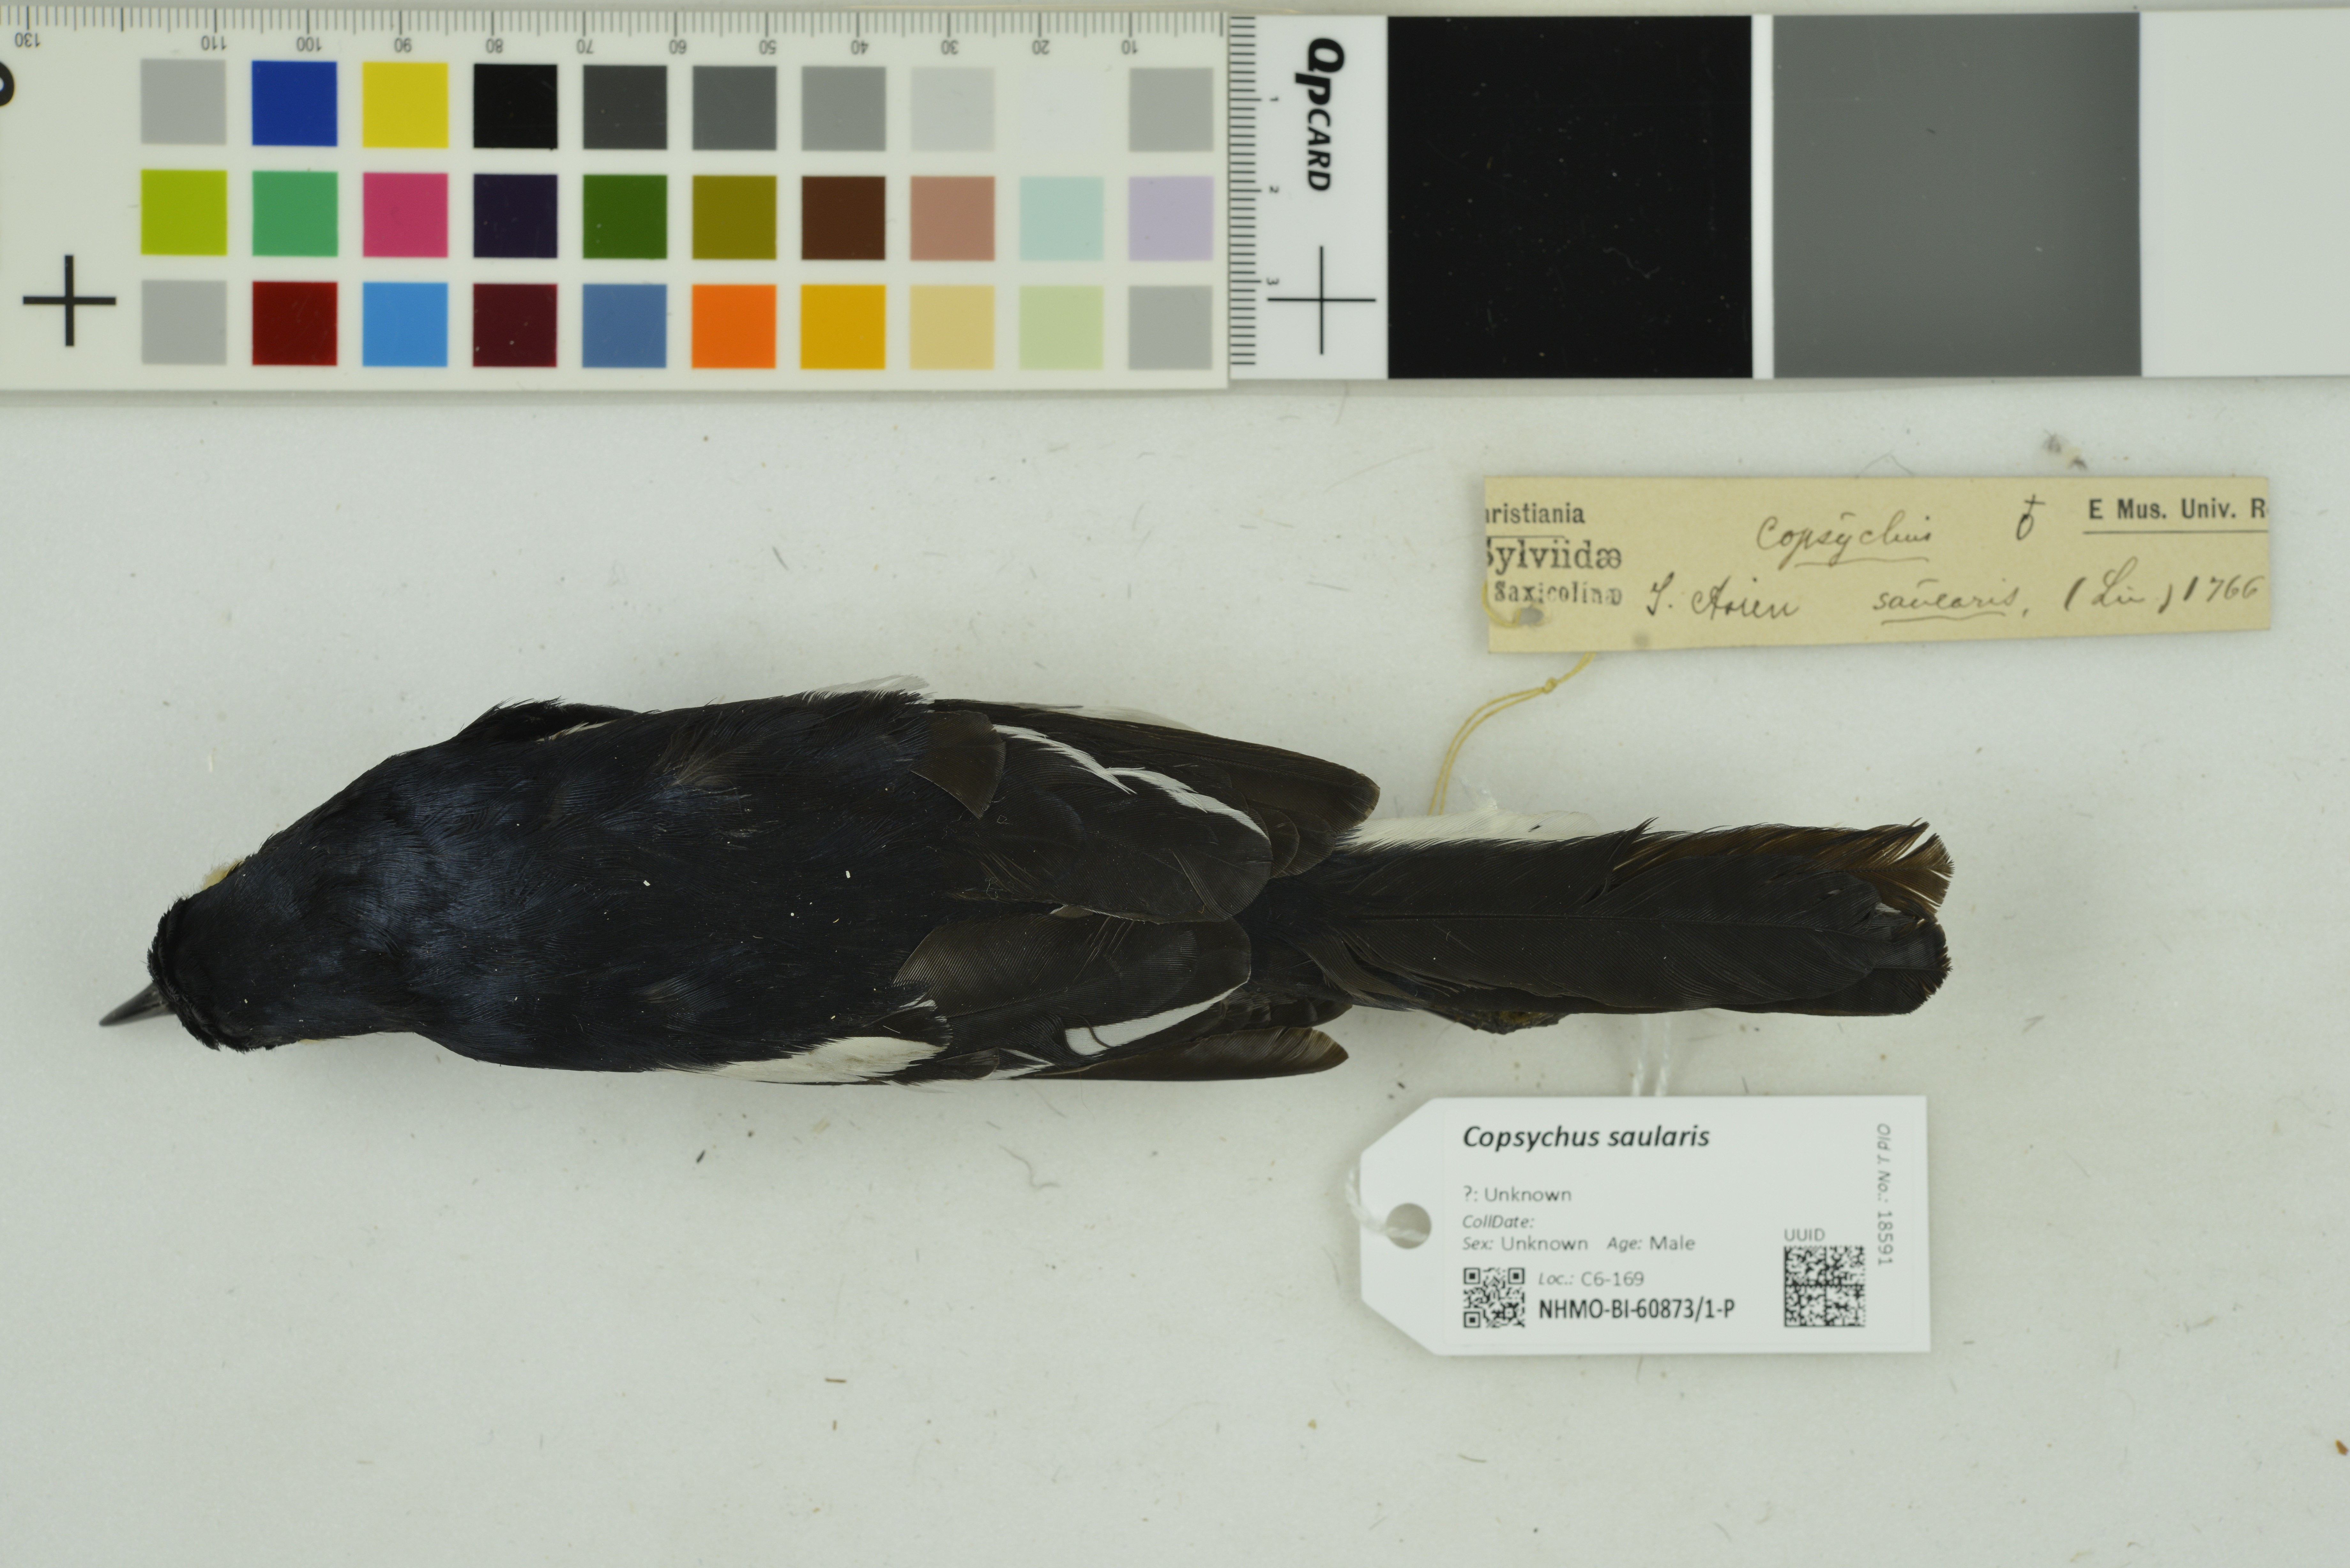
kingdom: Animalia
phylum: Chordata
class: Aves
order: Passeriformes
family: Muscicapidae
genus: Copsychus
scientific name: Copsychus saularis
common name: Oriental magpie-robin
